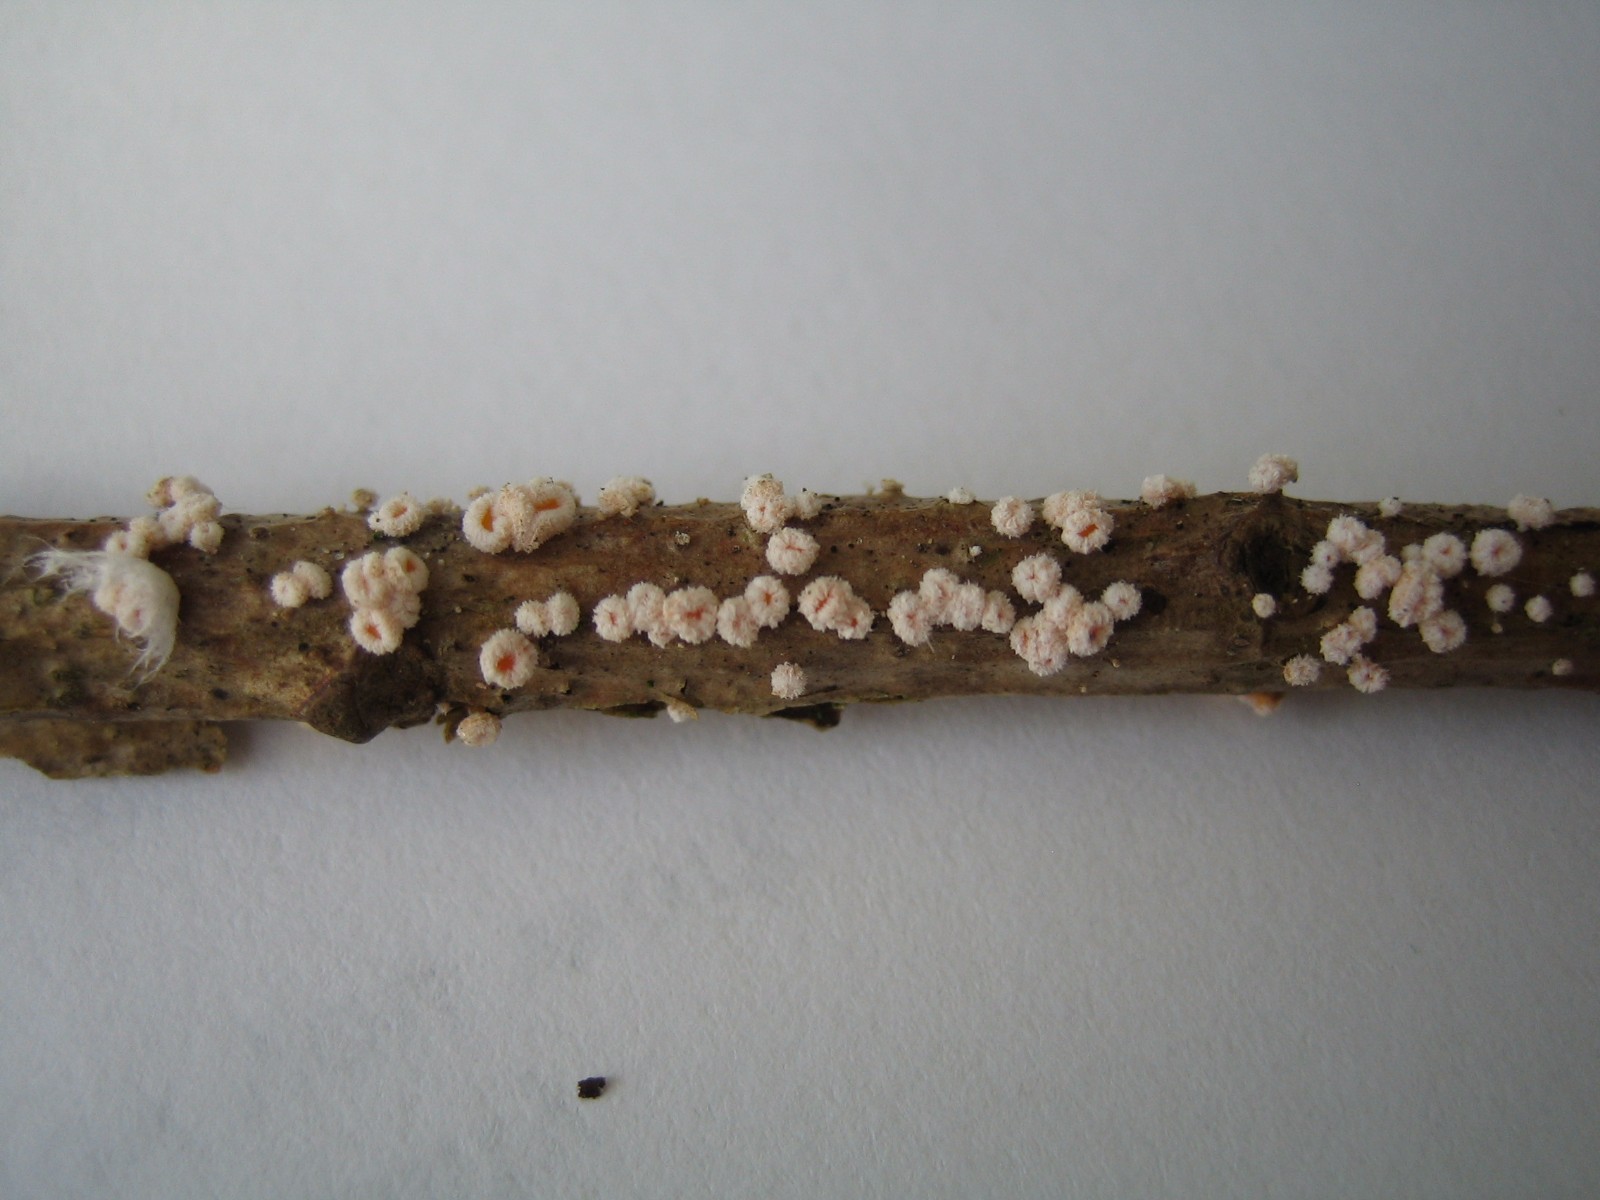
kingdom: Fungi
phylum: Ascomycota
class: Leotiomycetes
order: Helotiales
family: Lachnaceae
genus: Capitotricha
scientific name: Capitotricha bicolor
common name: prægtig frynseskive
